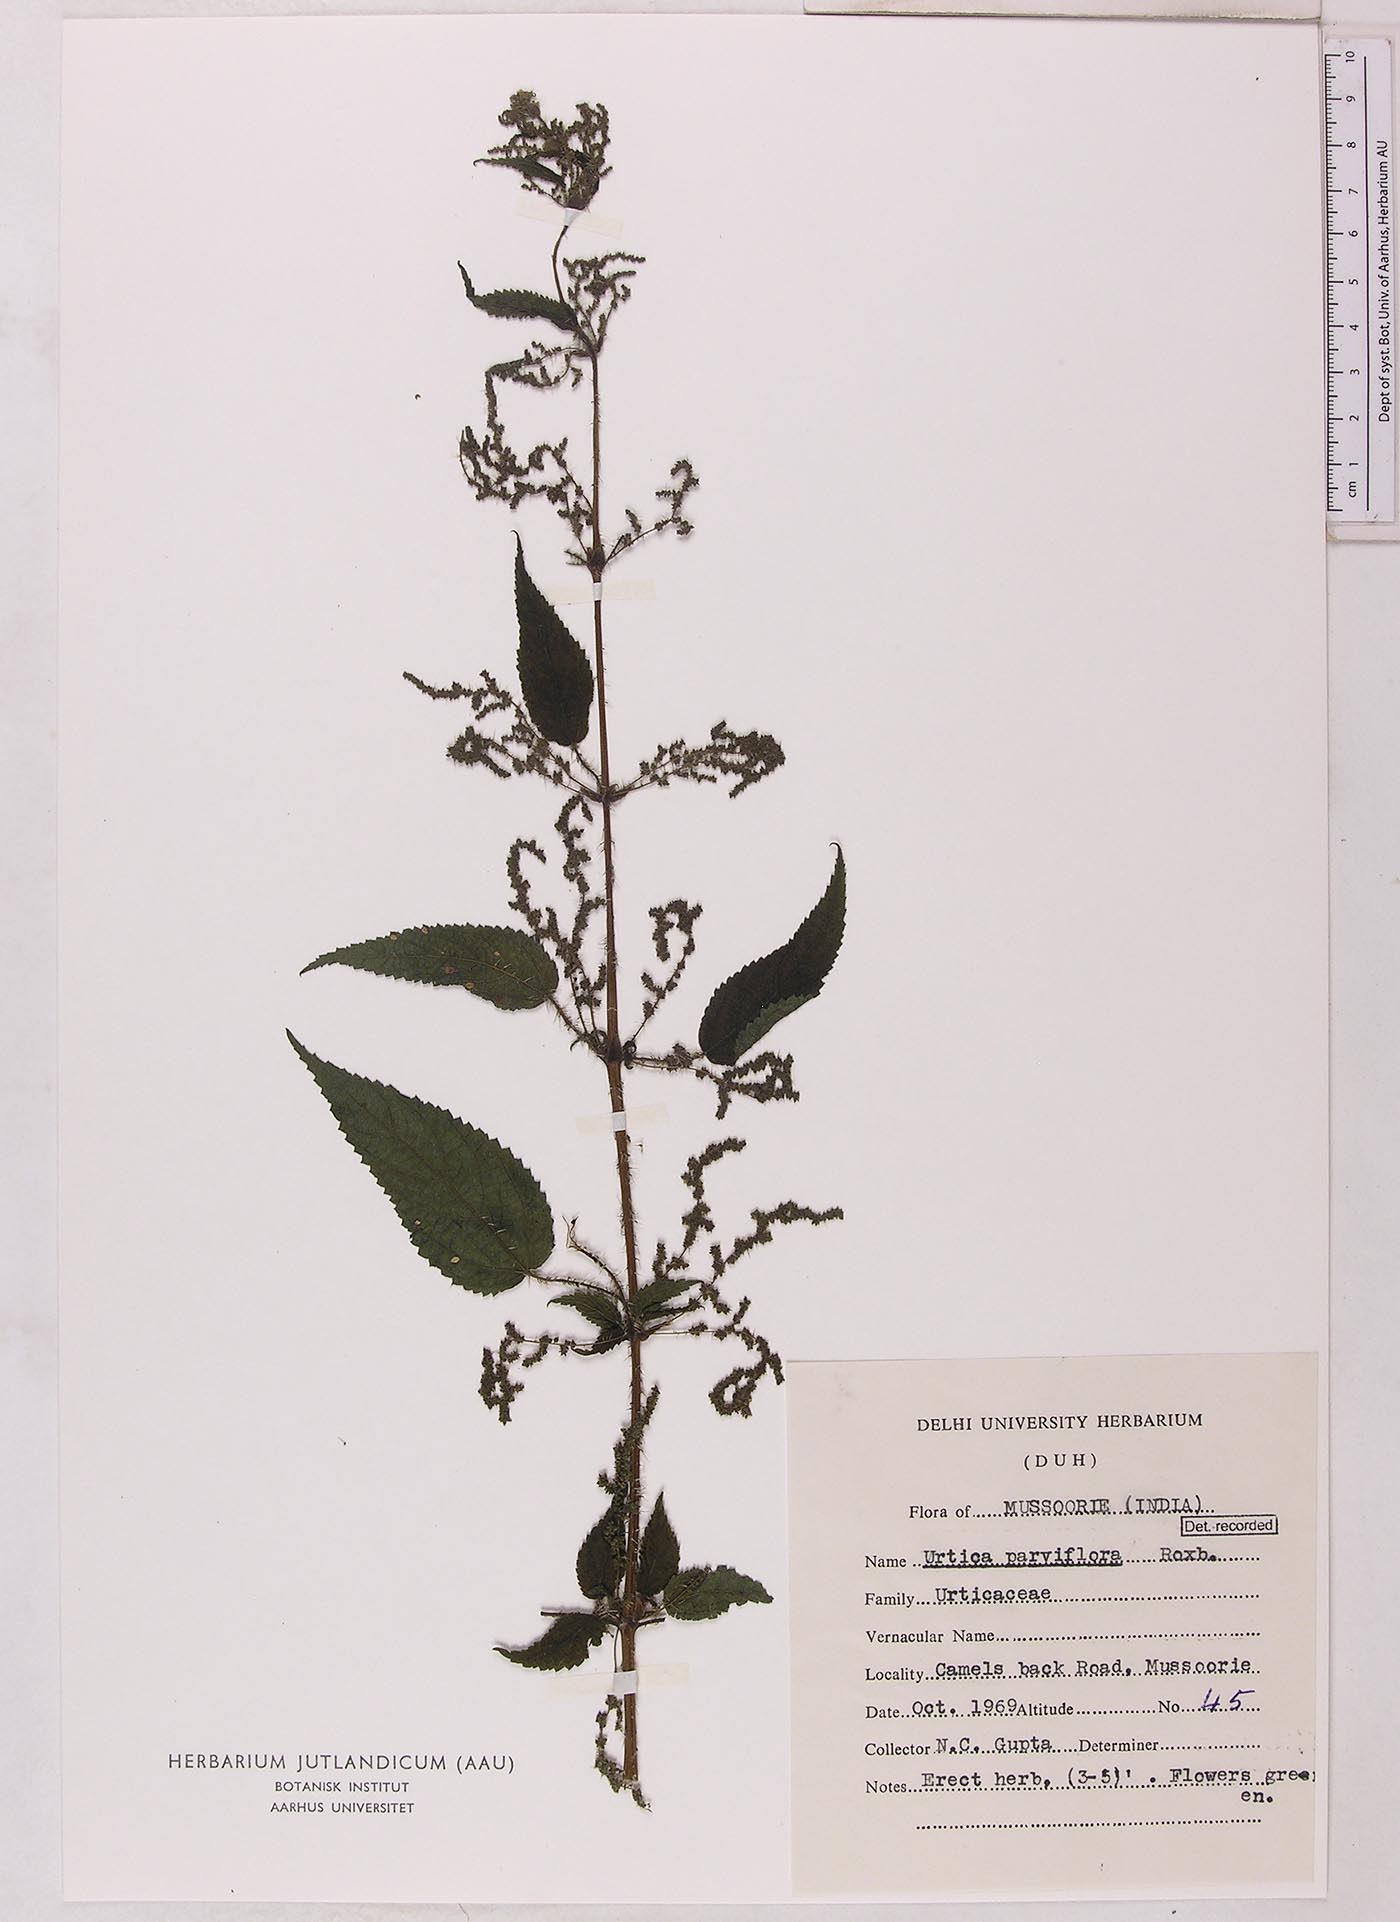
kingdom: Plantae
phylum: Tracheophyta
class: Magnoliopsida
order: Rosales
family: Urticaceae
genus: Urtica
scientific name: Urtica ardens
